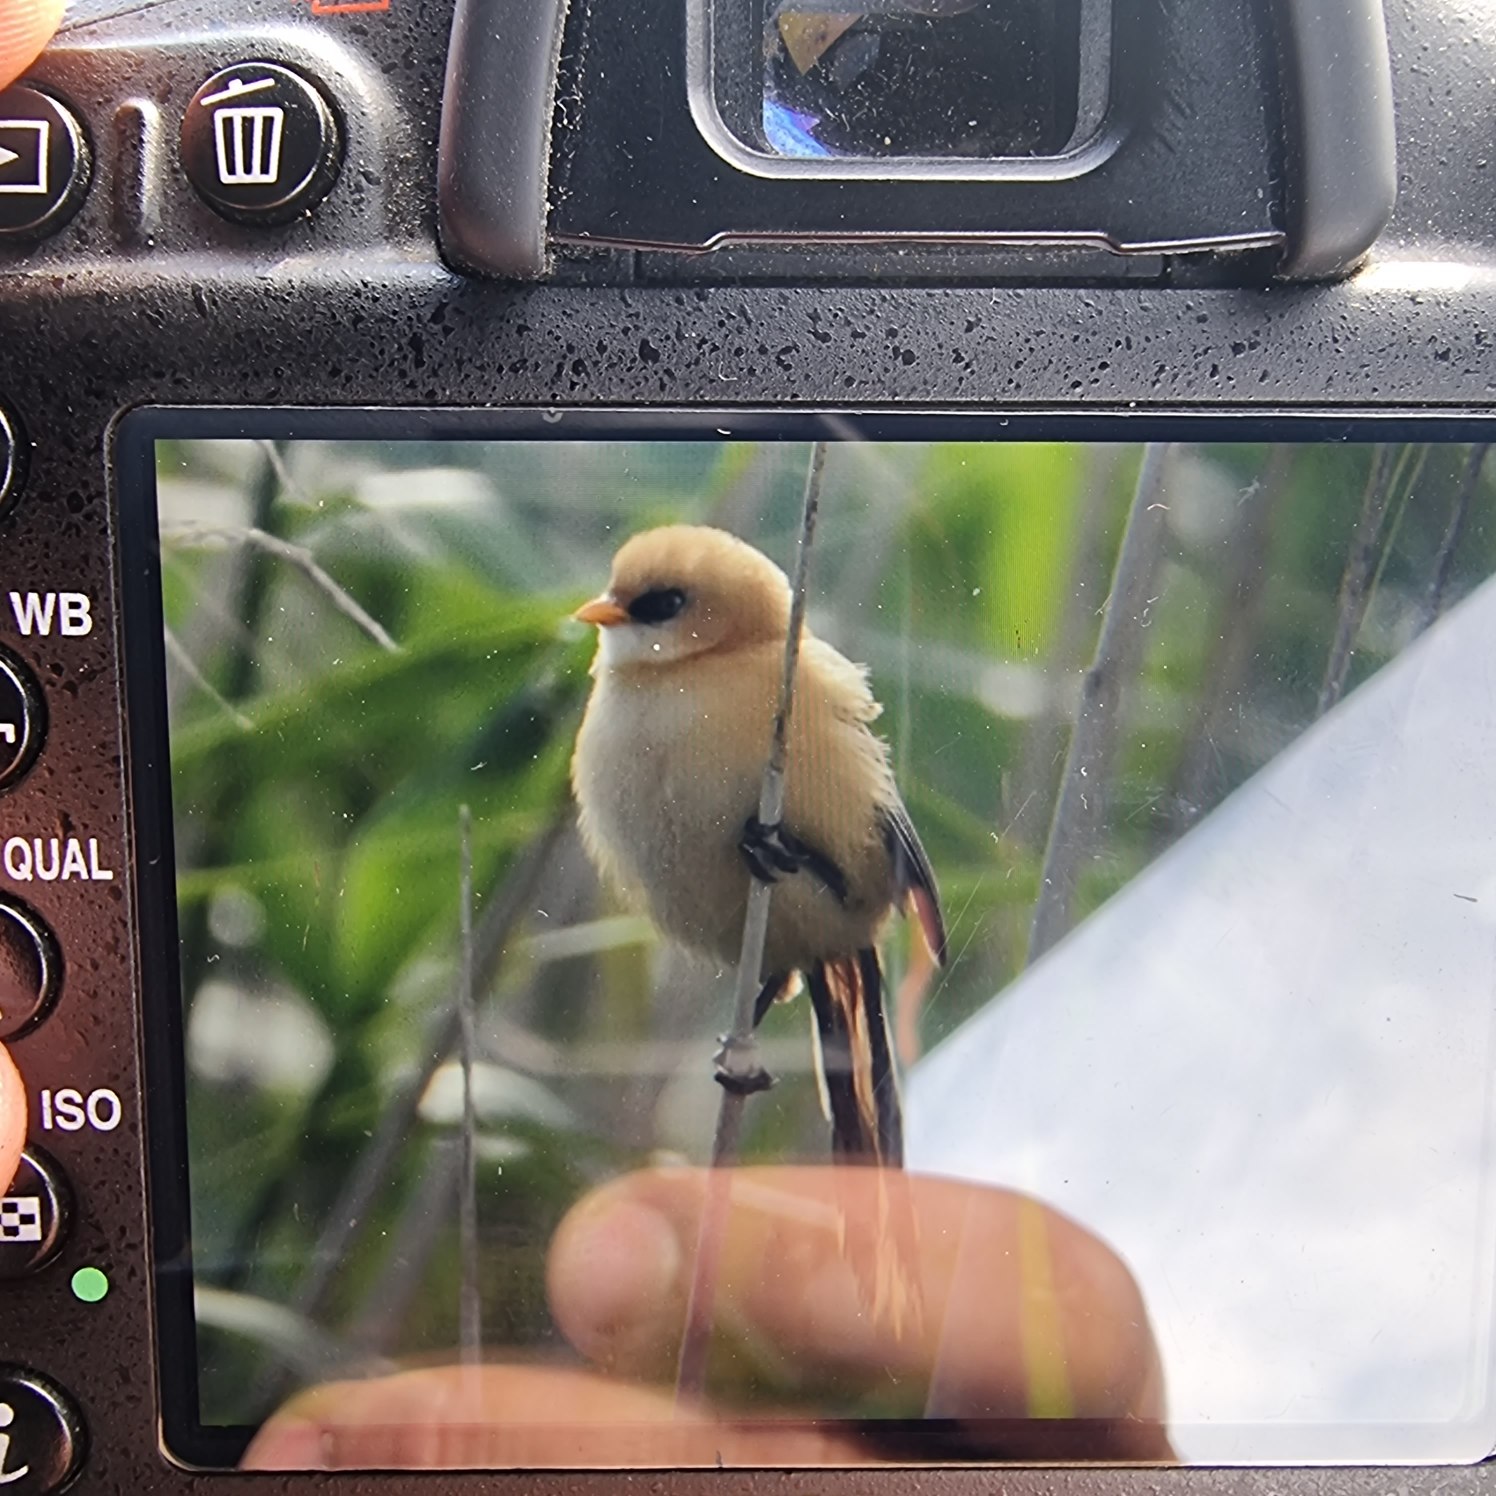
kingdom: Animalia
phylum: Chordata
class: Aves
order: Passeriformes
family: Panuridae
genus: Panurus
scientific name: Panurus biarmicus
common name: Skægmejse
